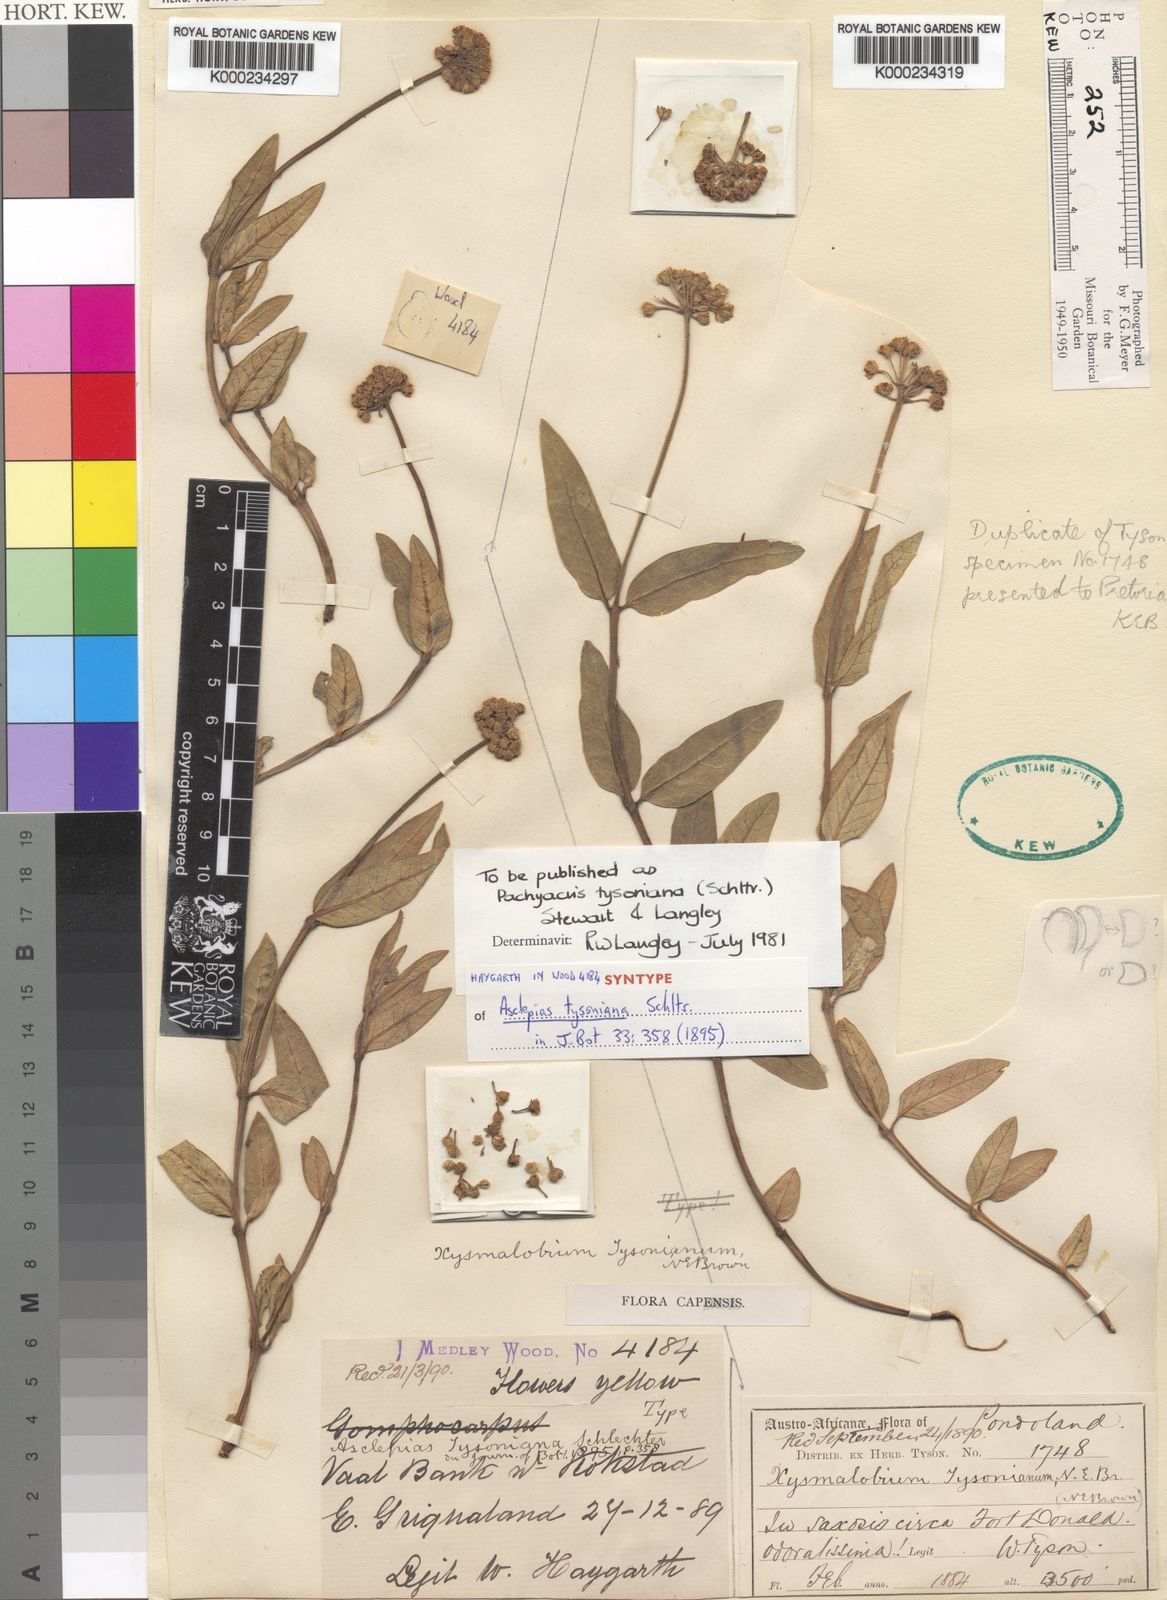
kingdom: Plantae
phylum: Tracheophyta
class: Magnoliopsida
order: Gentianales
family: Apocynaceae
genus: Xysmalobium
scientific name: Xysmalobium tysonianum
